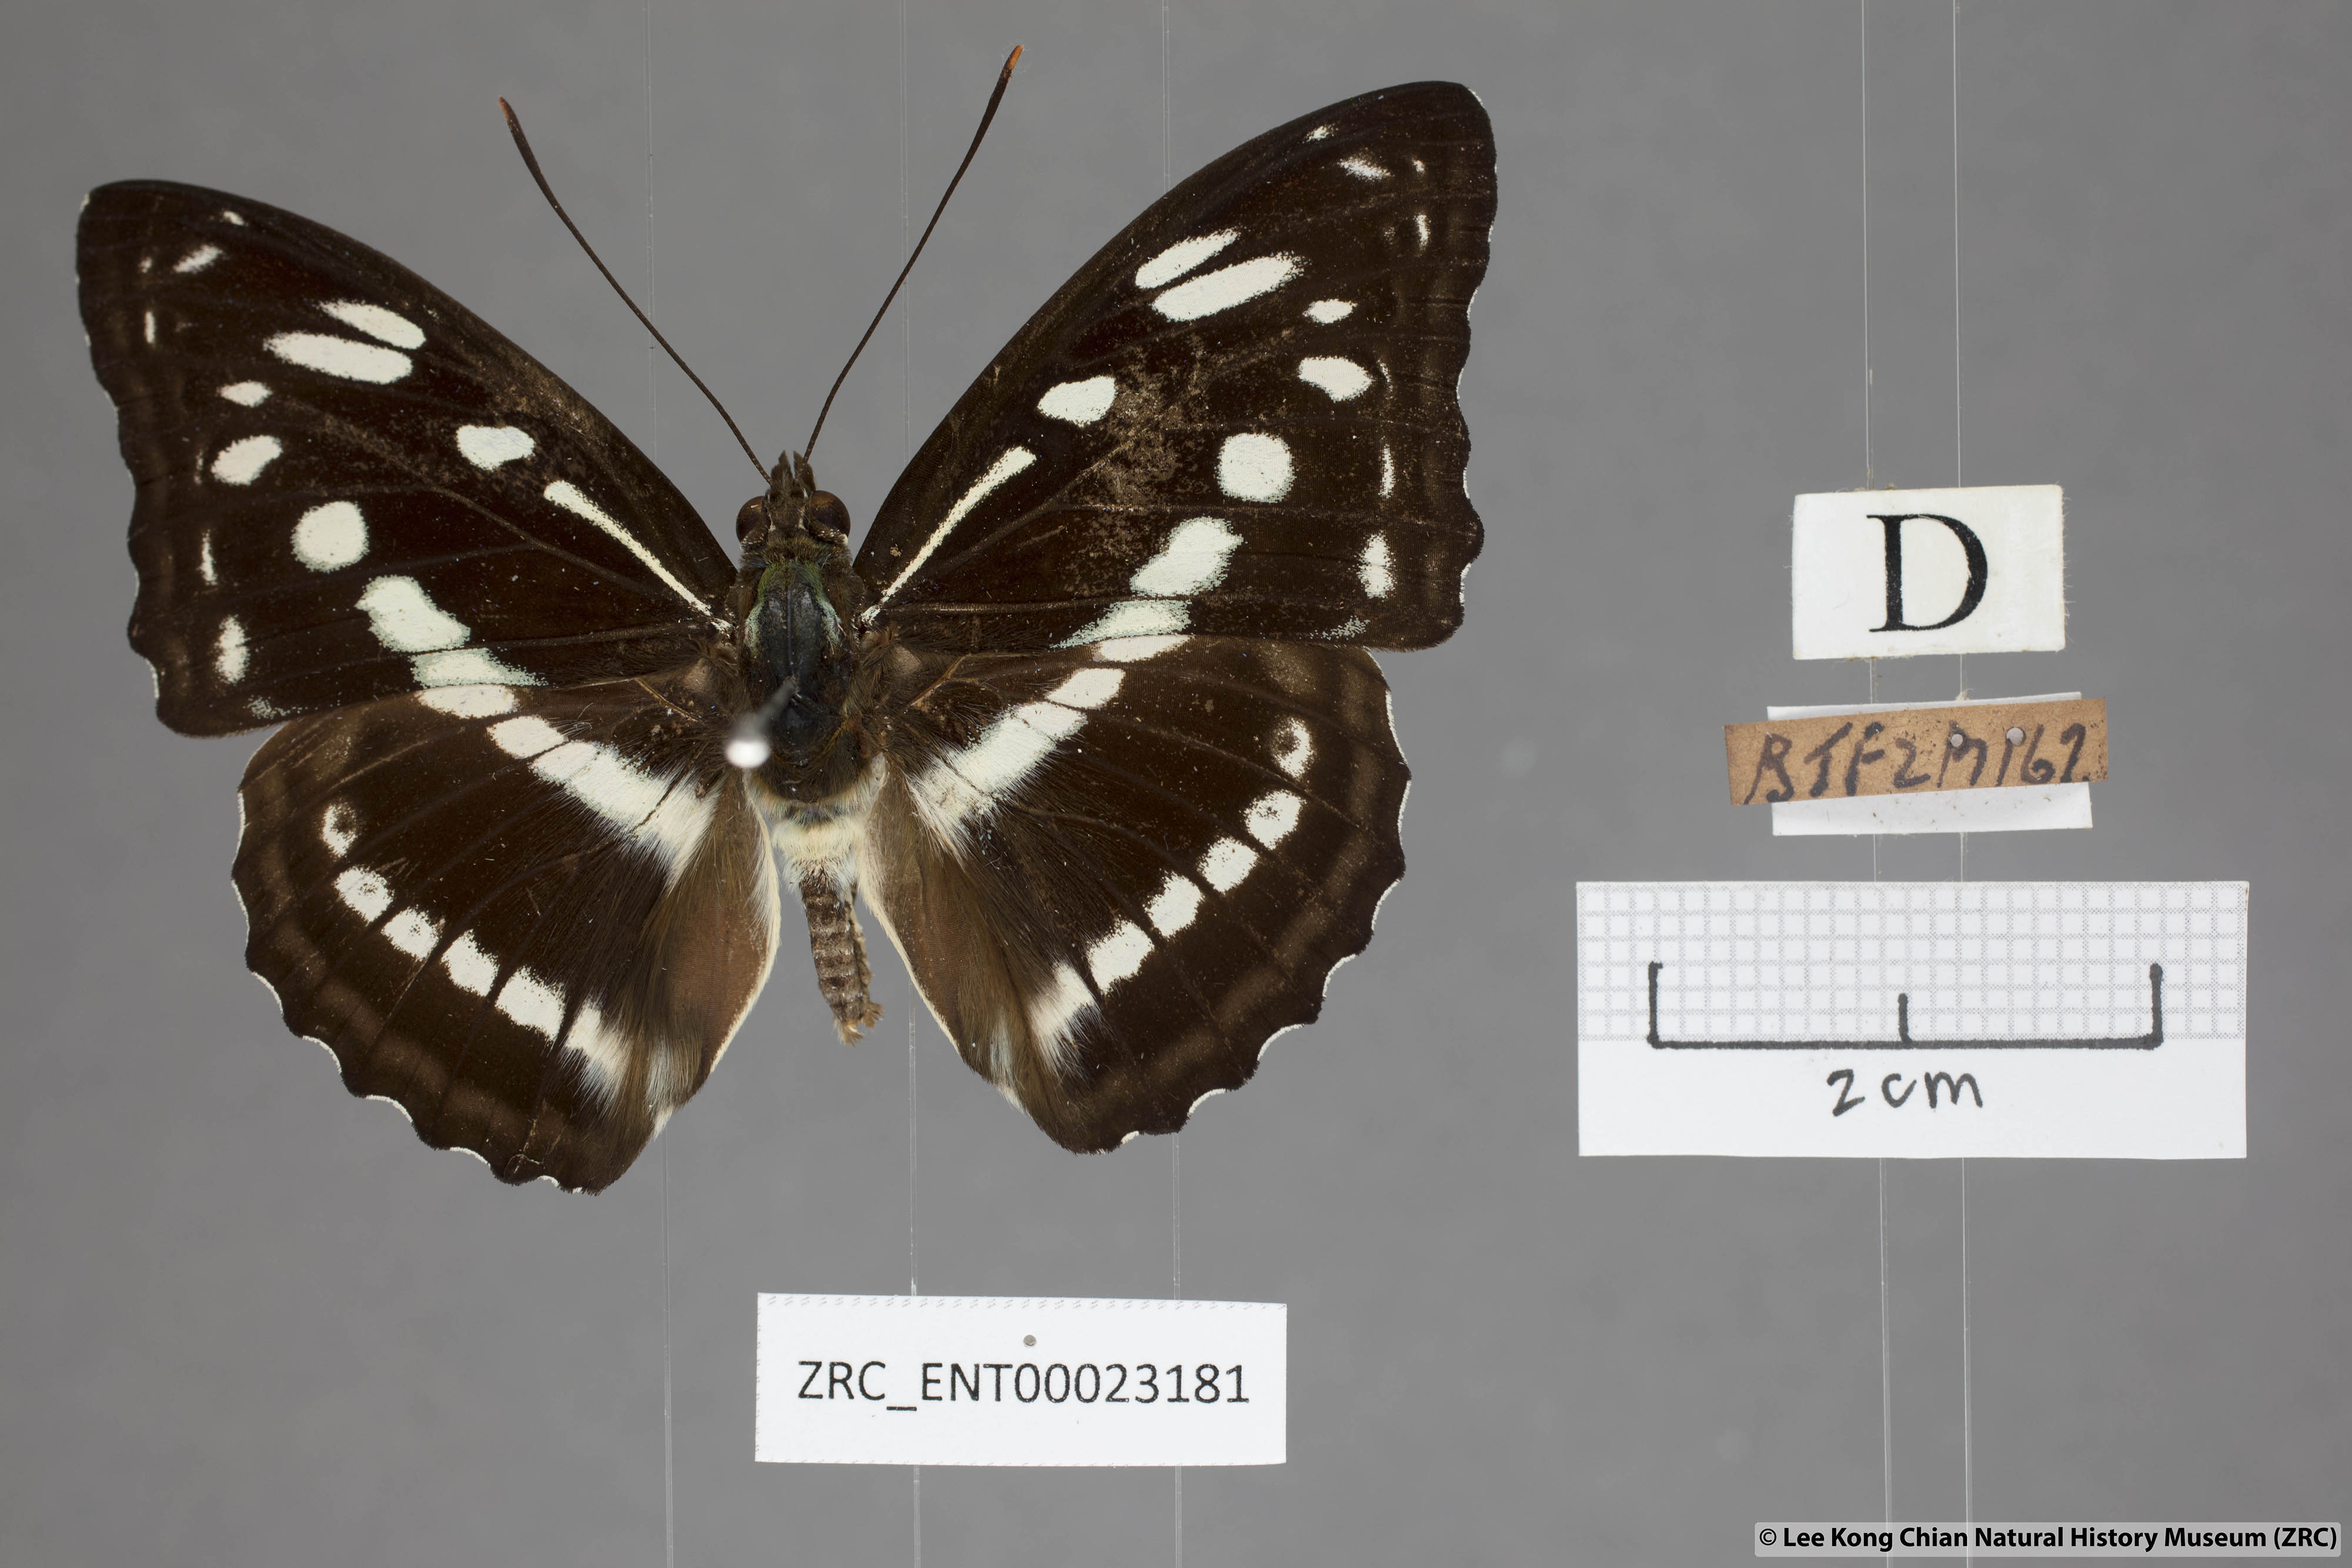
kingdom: Animalia
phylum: Arthropoda
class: Insecta
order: Lepidoptera
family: Nymphalidae
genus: Parathyma
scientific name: Parathyma asura
